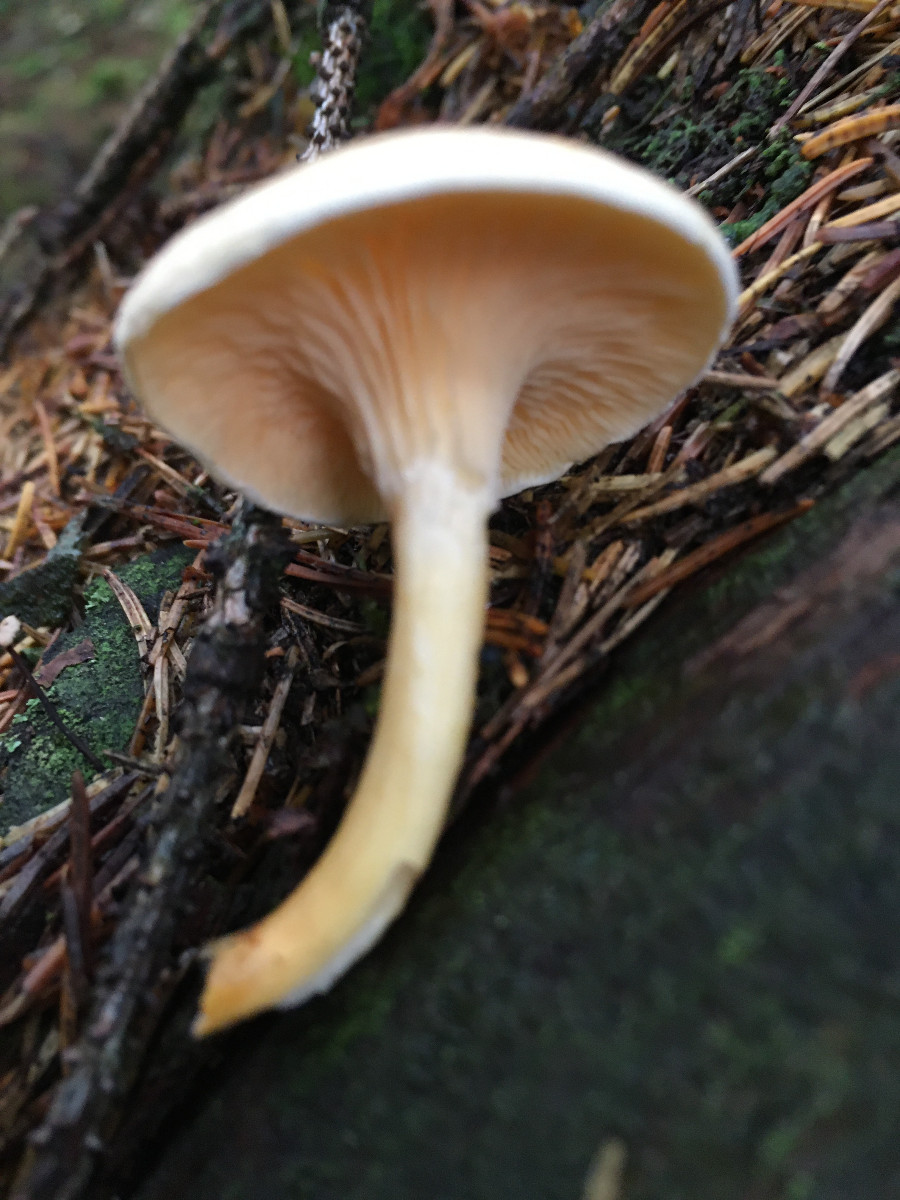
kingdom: Fungi
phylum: Basidiomycota
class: Agaricomycetes
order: Boletales
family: Hygrophoropsidaceae
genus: Hygrophoropsis
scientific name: Hygrophoropsis aurantiaca
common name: almindelig orangekantarel
